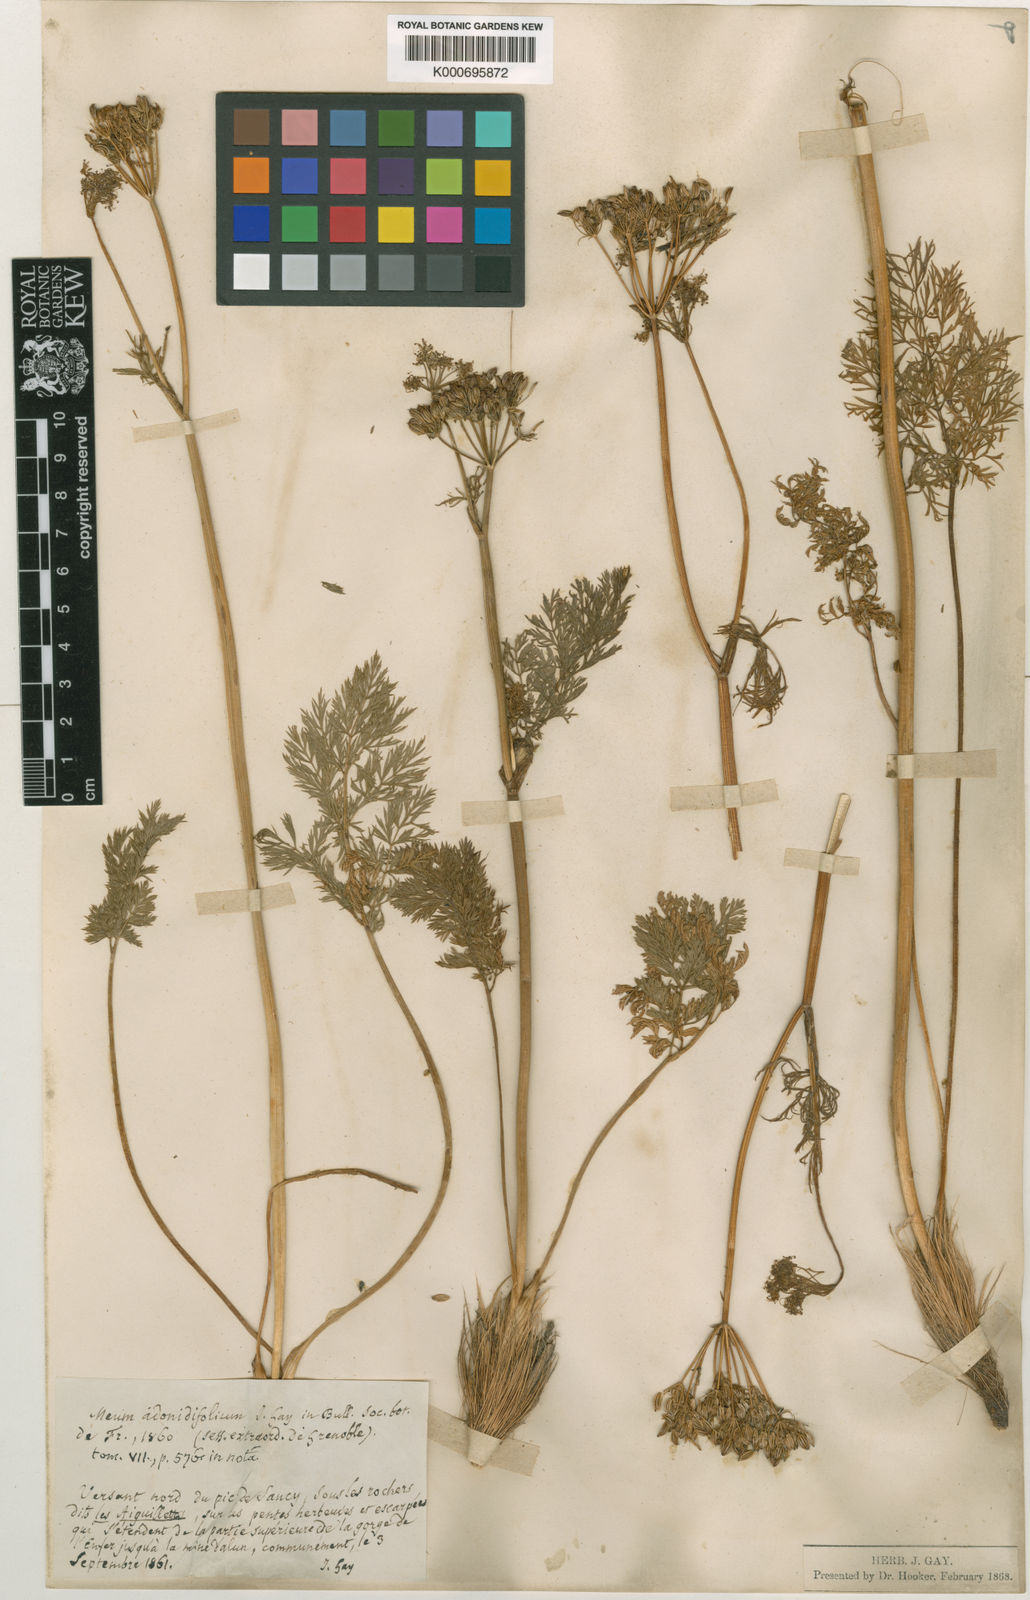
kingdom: Plantae
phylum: Tracheophyta
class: Magnoliopsida
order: Apiales
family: Apiaceae
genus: Mutellina
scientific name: Mutellina adonidifolia
